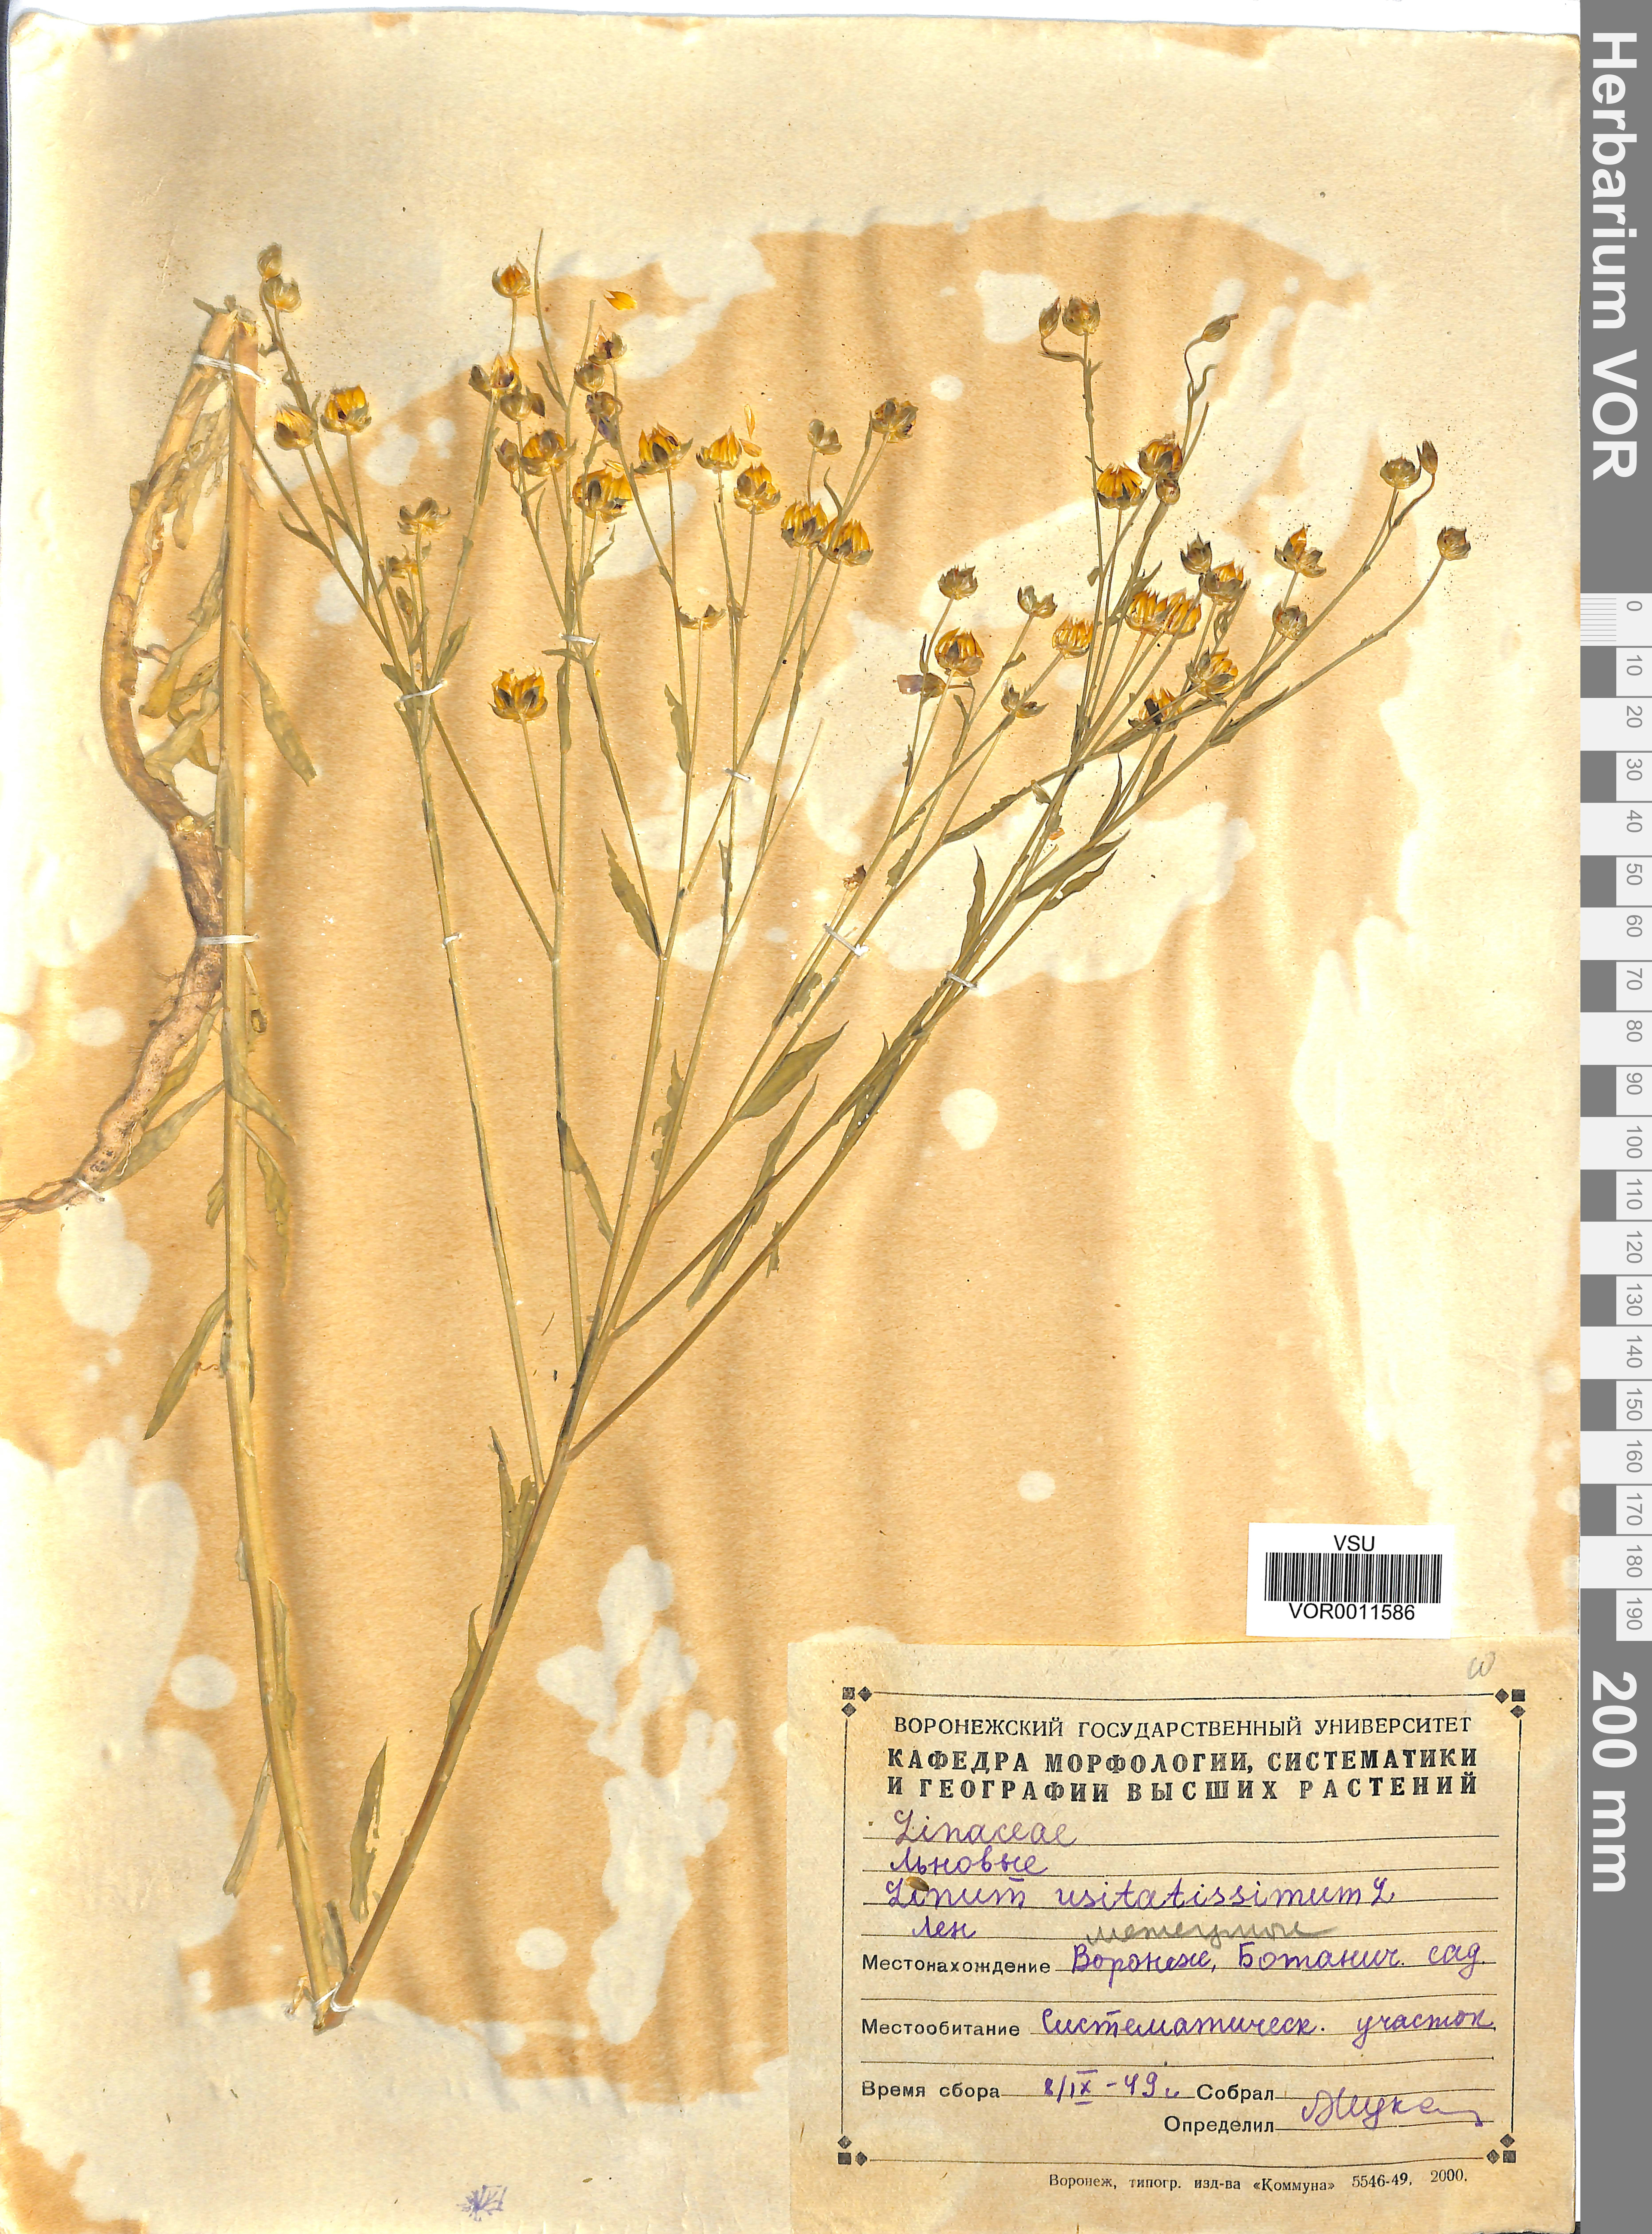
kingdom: Plantae
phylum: Tracheophyta
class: Magnoliopsida
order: Malpighiales
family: Linaceae
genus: Linum
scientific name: Linum usitatissimum
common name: Flax
